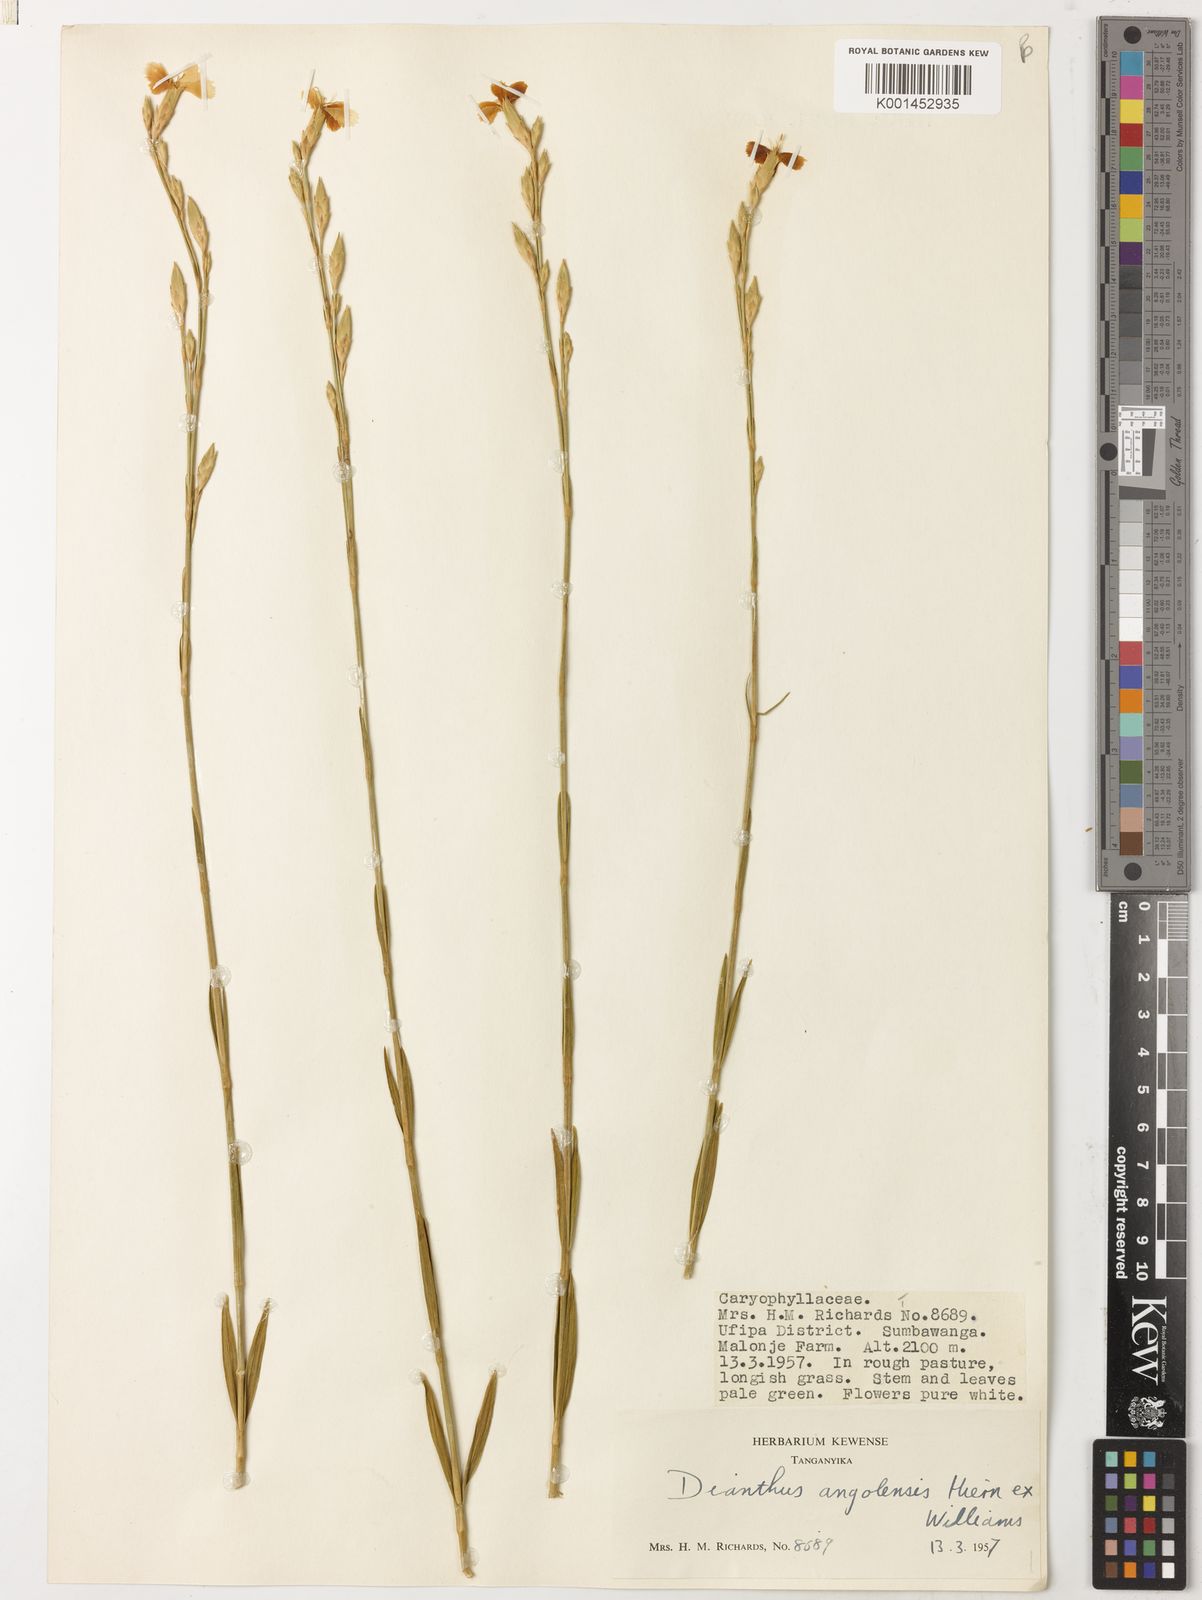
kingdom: Plantae
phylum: Tracheophyta
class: Magnoliopsida
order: Caryophyllales
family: Caryophyllaceae
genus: Dianthus
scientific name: Dianthus angolensis
